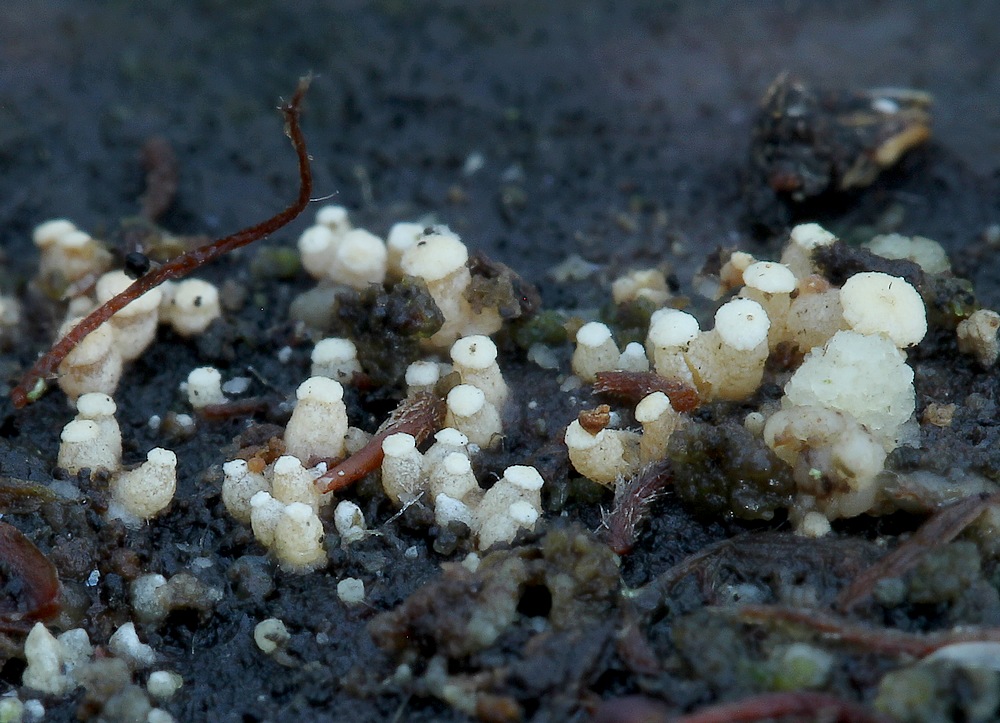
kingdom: Fungi
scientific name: Fungi
